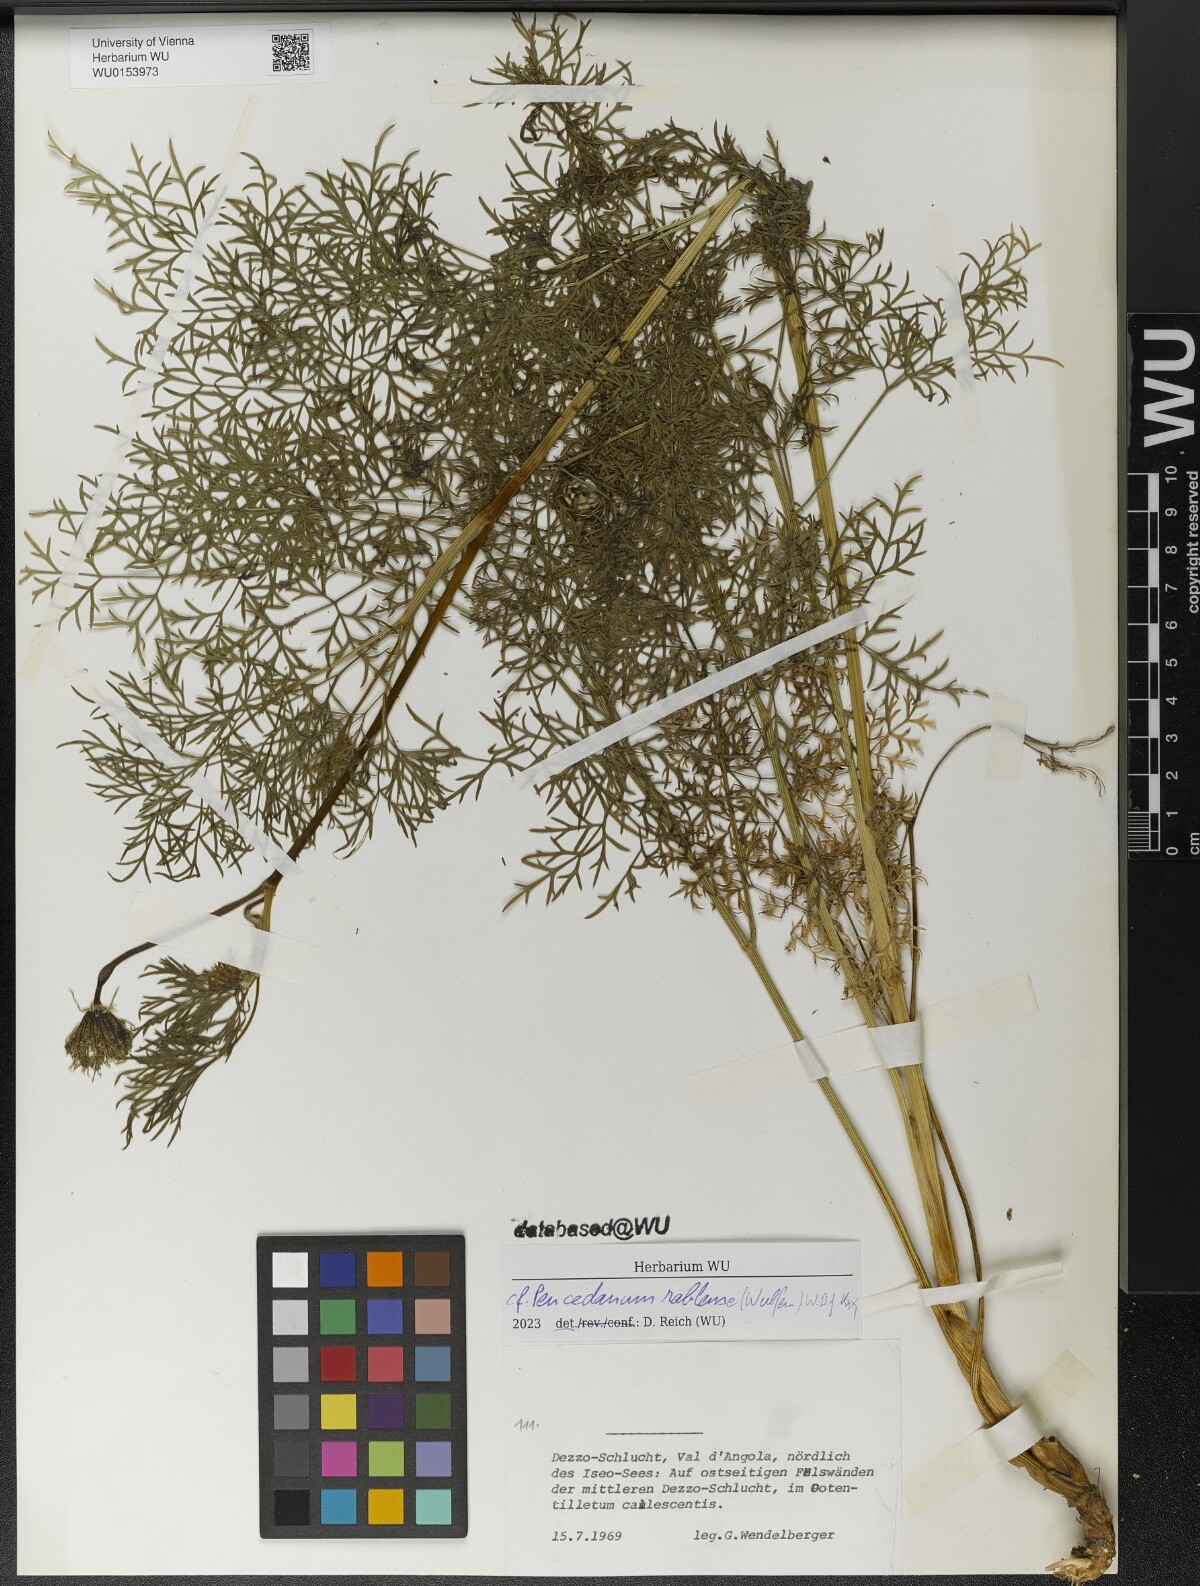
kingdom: Plantae
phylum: Tracheophyta
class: Magnoliopsida
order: Apiales
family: Apiaceae
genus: Peucedanum
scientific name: Peucedanum rablense
